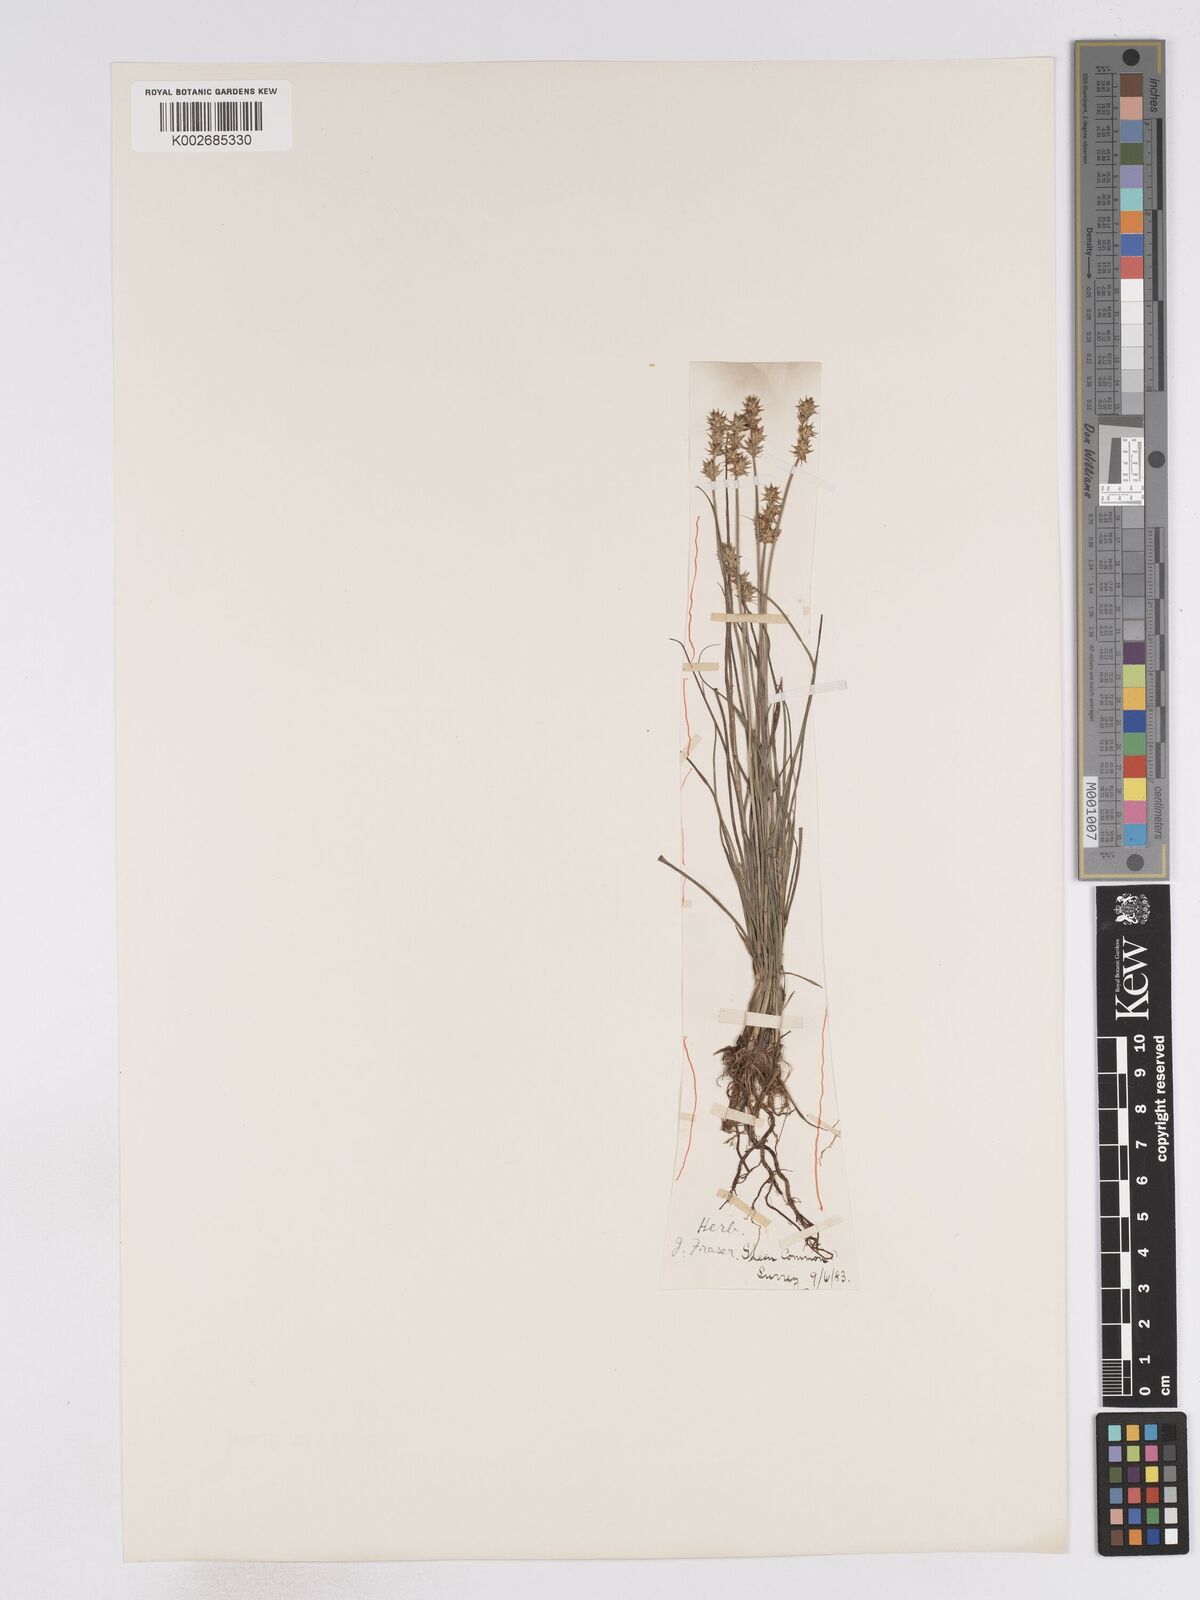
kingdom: Plantae
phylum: Tracheophyta
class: Liliopsida
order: Poales
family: Cyperaceae
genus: Carex
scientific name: Carex echinata
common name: Star sedge
